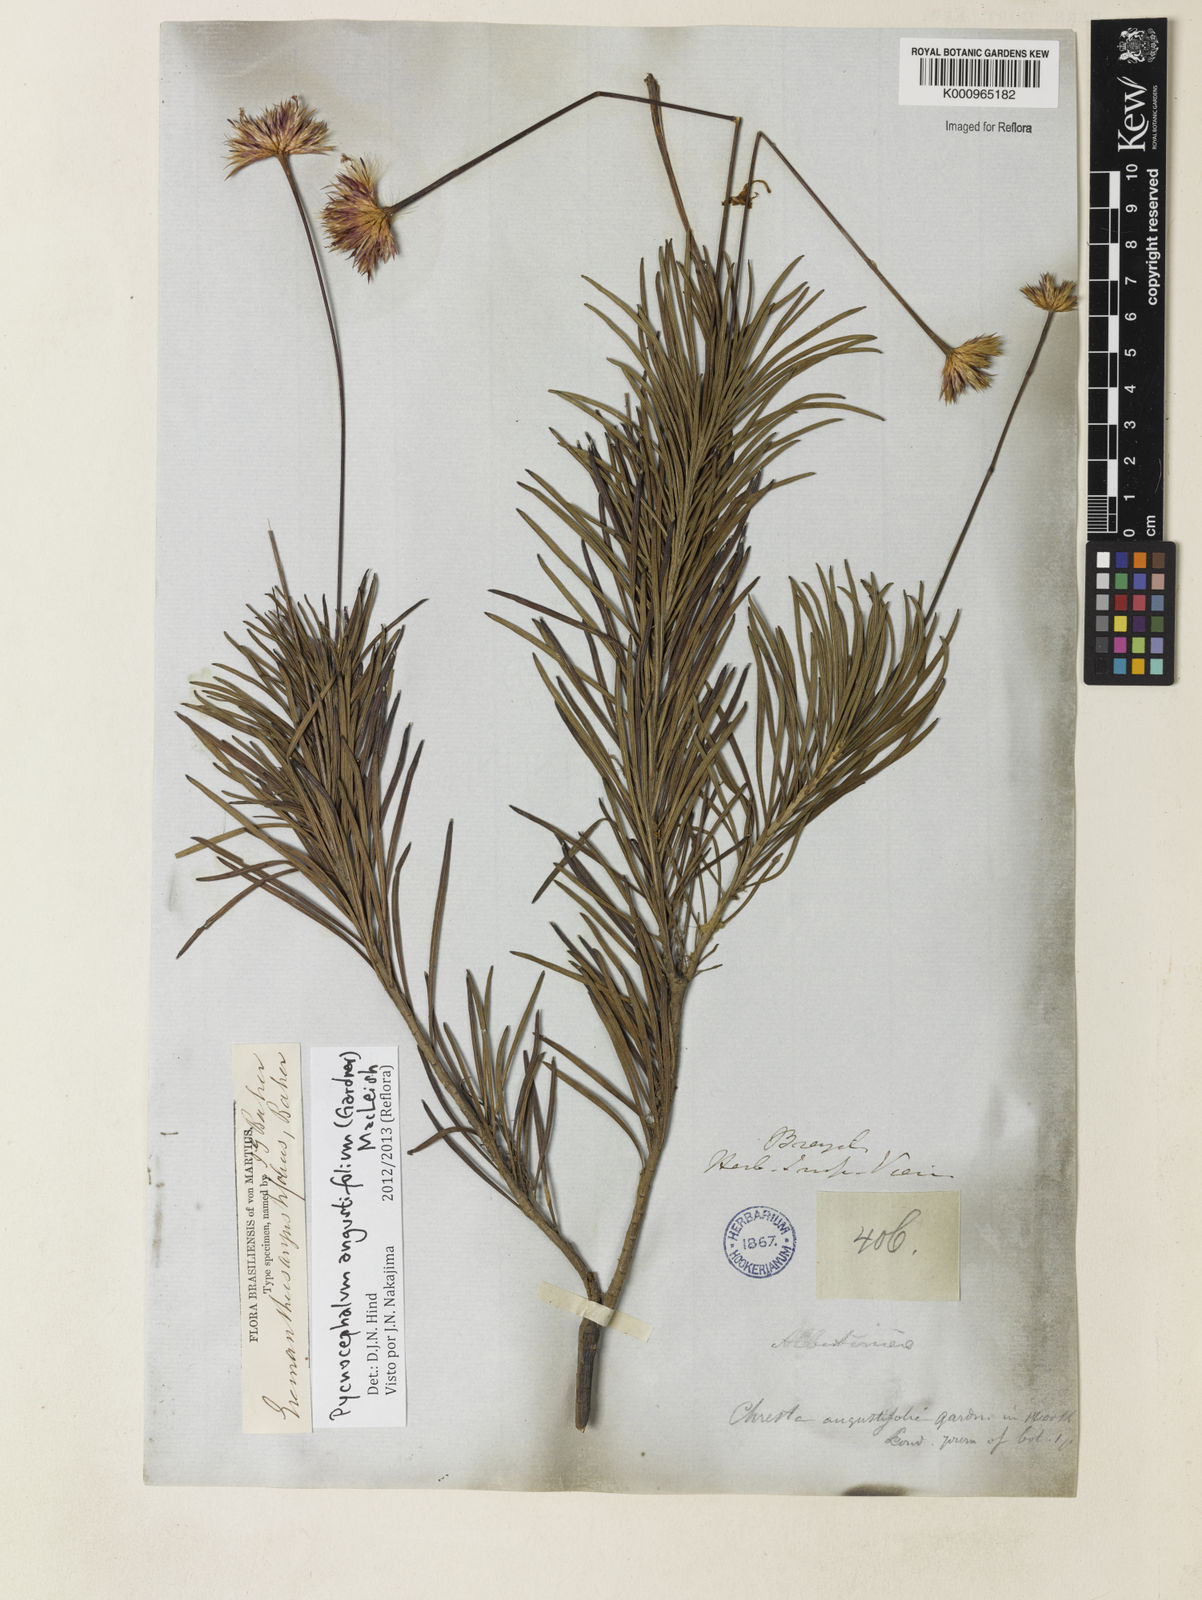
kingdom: Plantae
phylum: Tracheophyta
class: Magnoliopsida
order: Asterales
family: Asteraceae
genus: Chresta
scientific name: Chresta angustifolia
